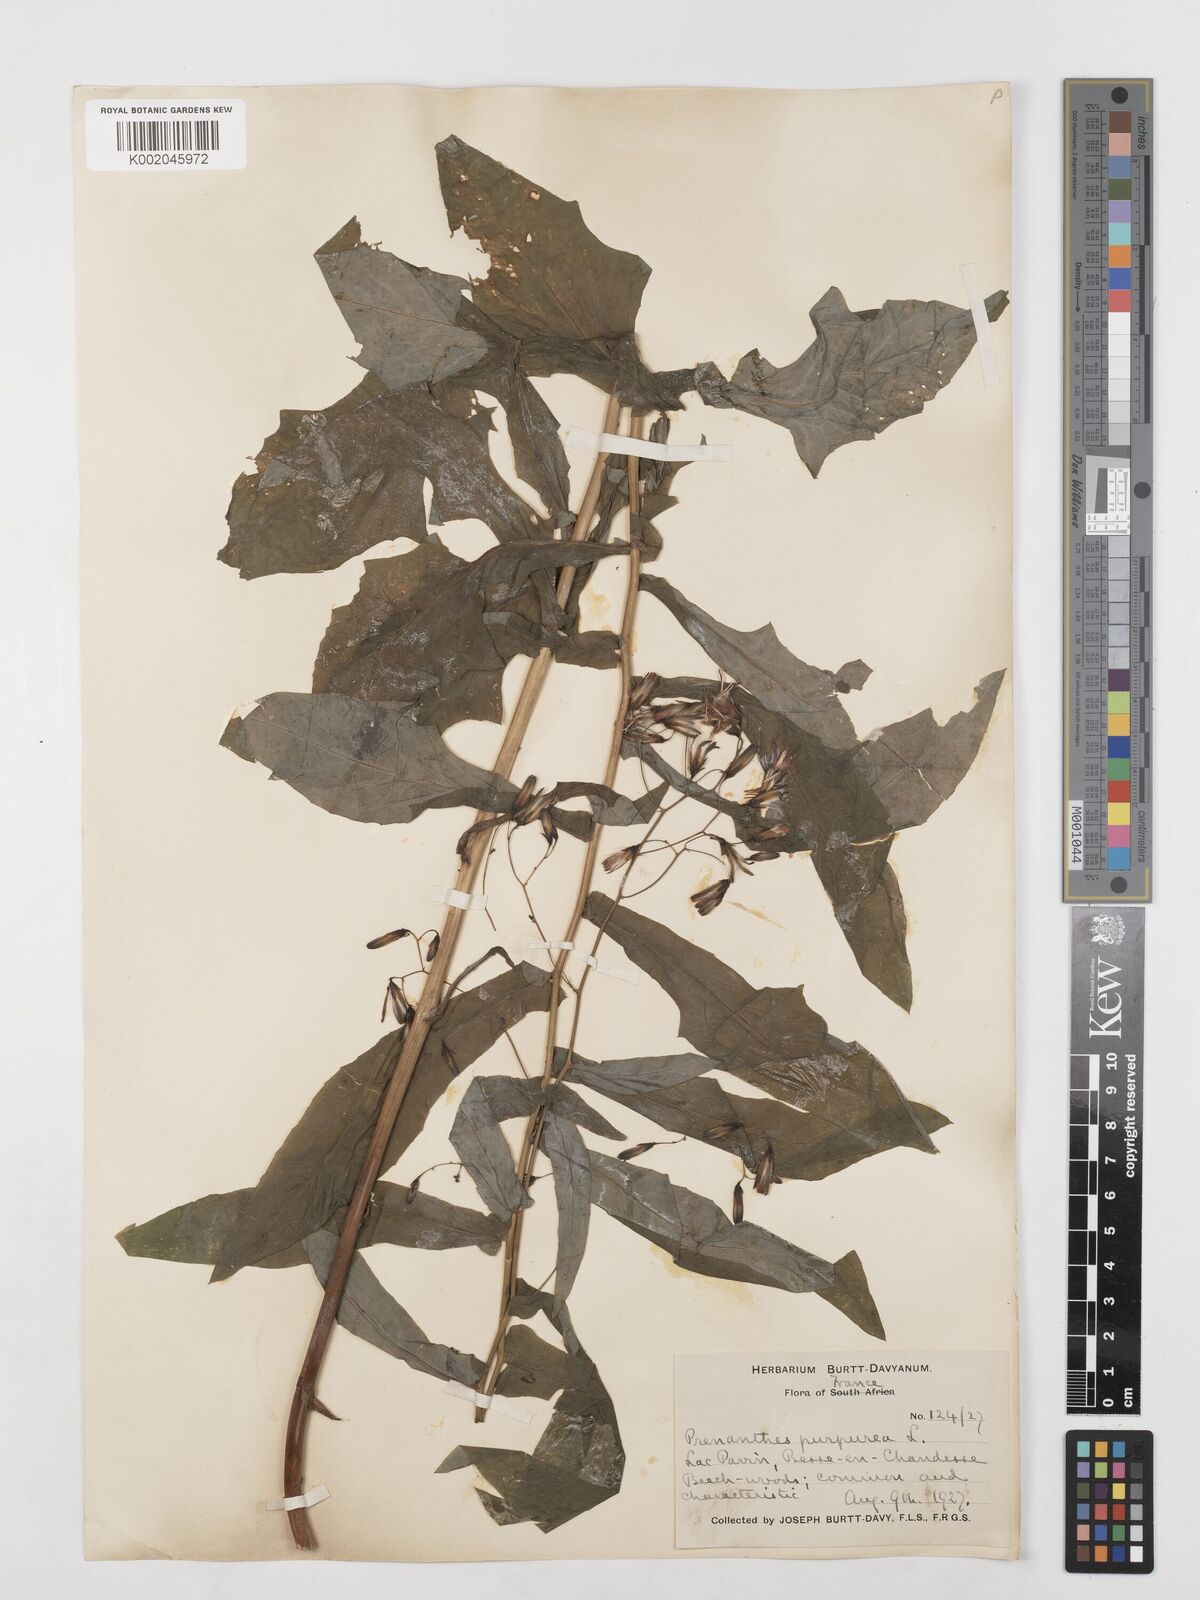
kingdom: Plantae
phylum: Tracheophyta
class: Magnoliopsida
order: Asterales
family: Asteraceae
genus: Prenanthes
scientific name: Prenanthes purpurea
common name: Purple lettuce
